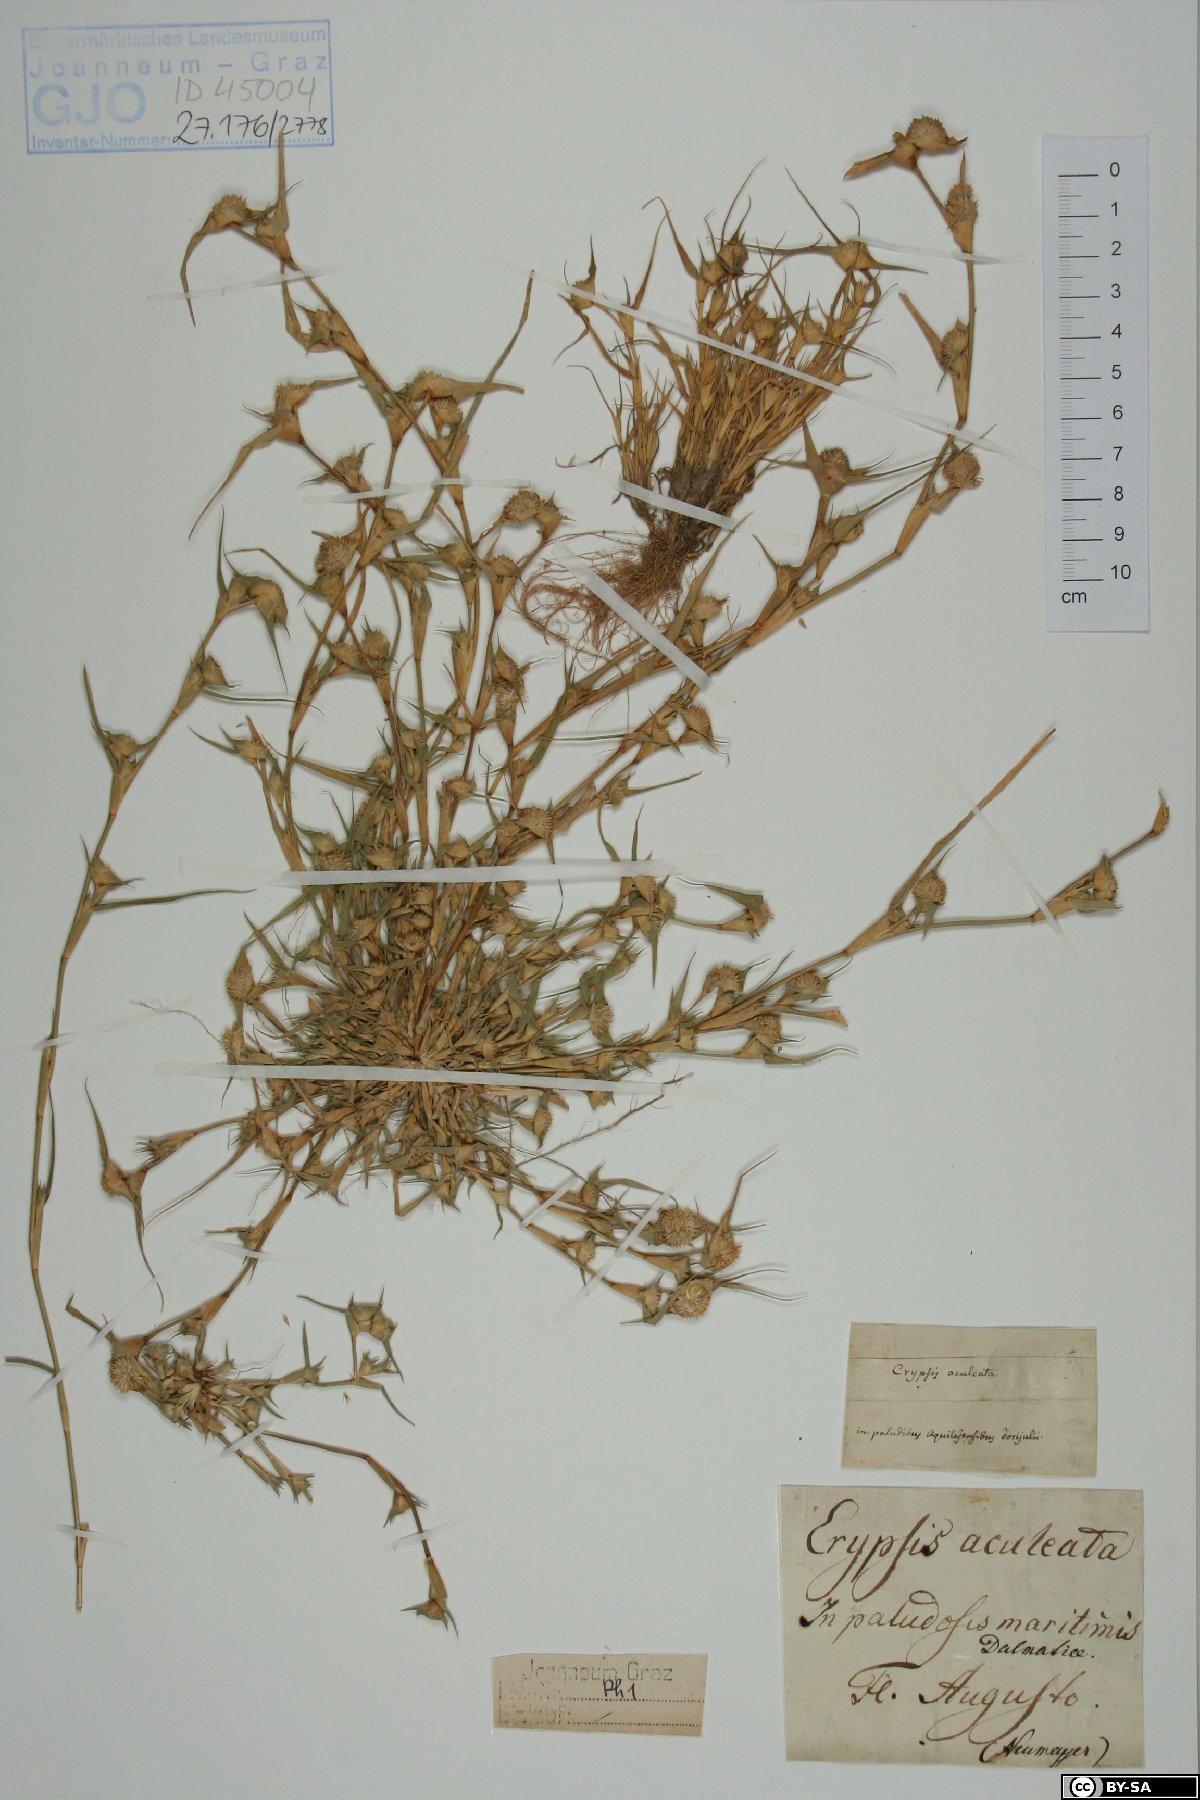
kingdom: Plantae
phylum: Tracheophyta
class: Liliopsida
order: Poales
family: Poaceae
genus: Sporobolus
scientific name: Sporobolus aculeatus
